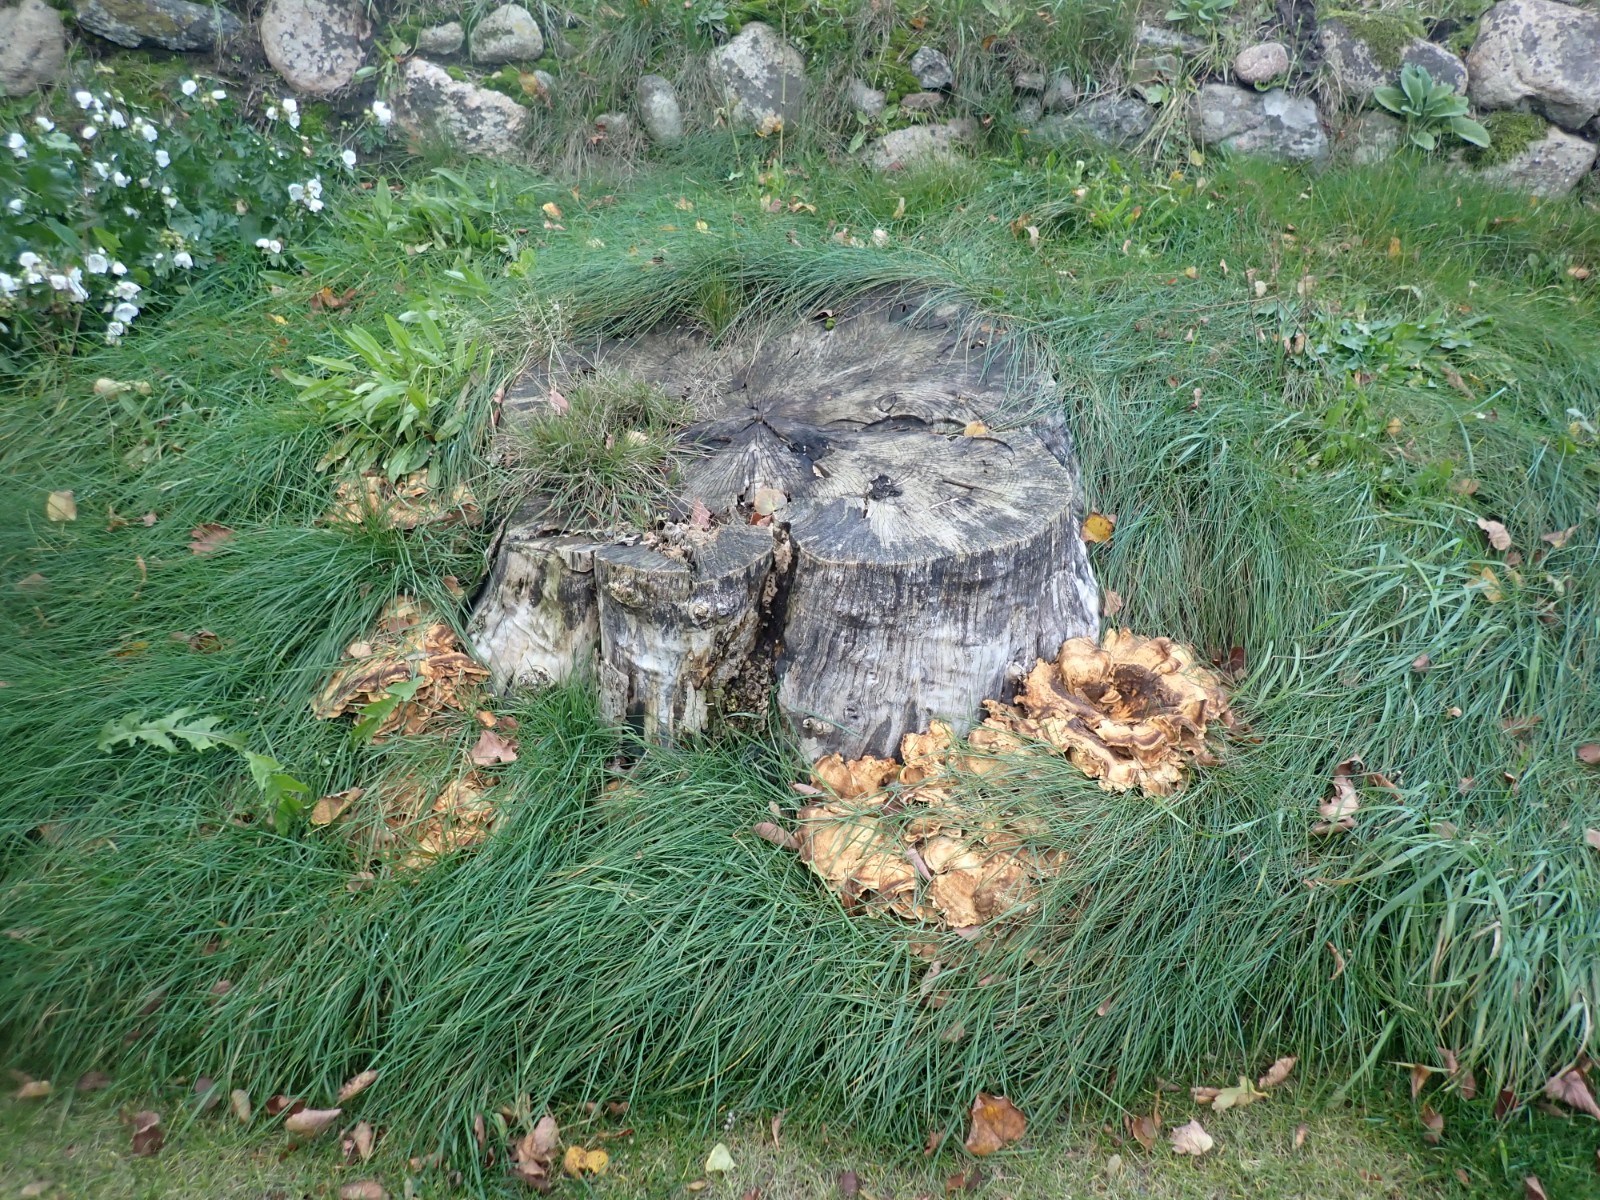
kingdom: Fungi
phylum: Basidiomycota
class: Agaricomycetes
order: Polyporales
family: Meripilaceae
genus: Meripilus
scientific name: Meripilus giganteus
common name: kæmpeporesvamp
